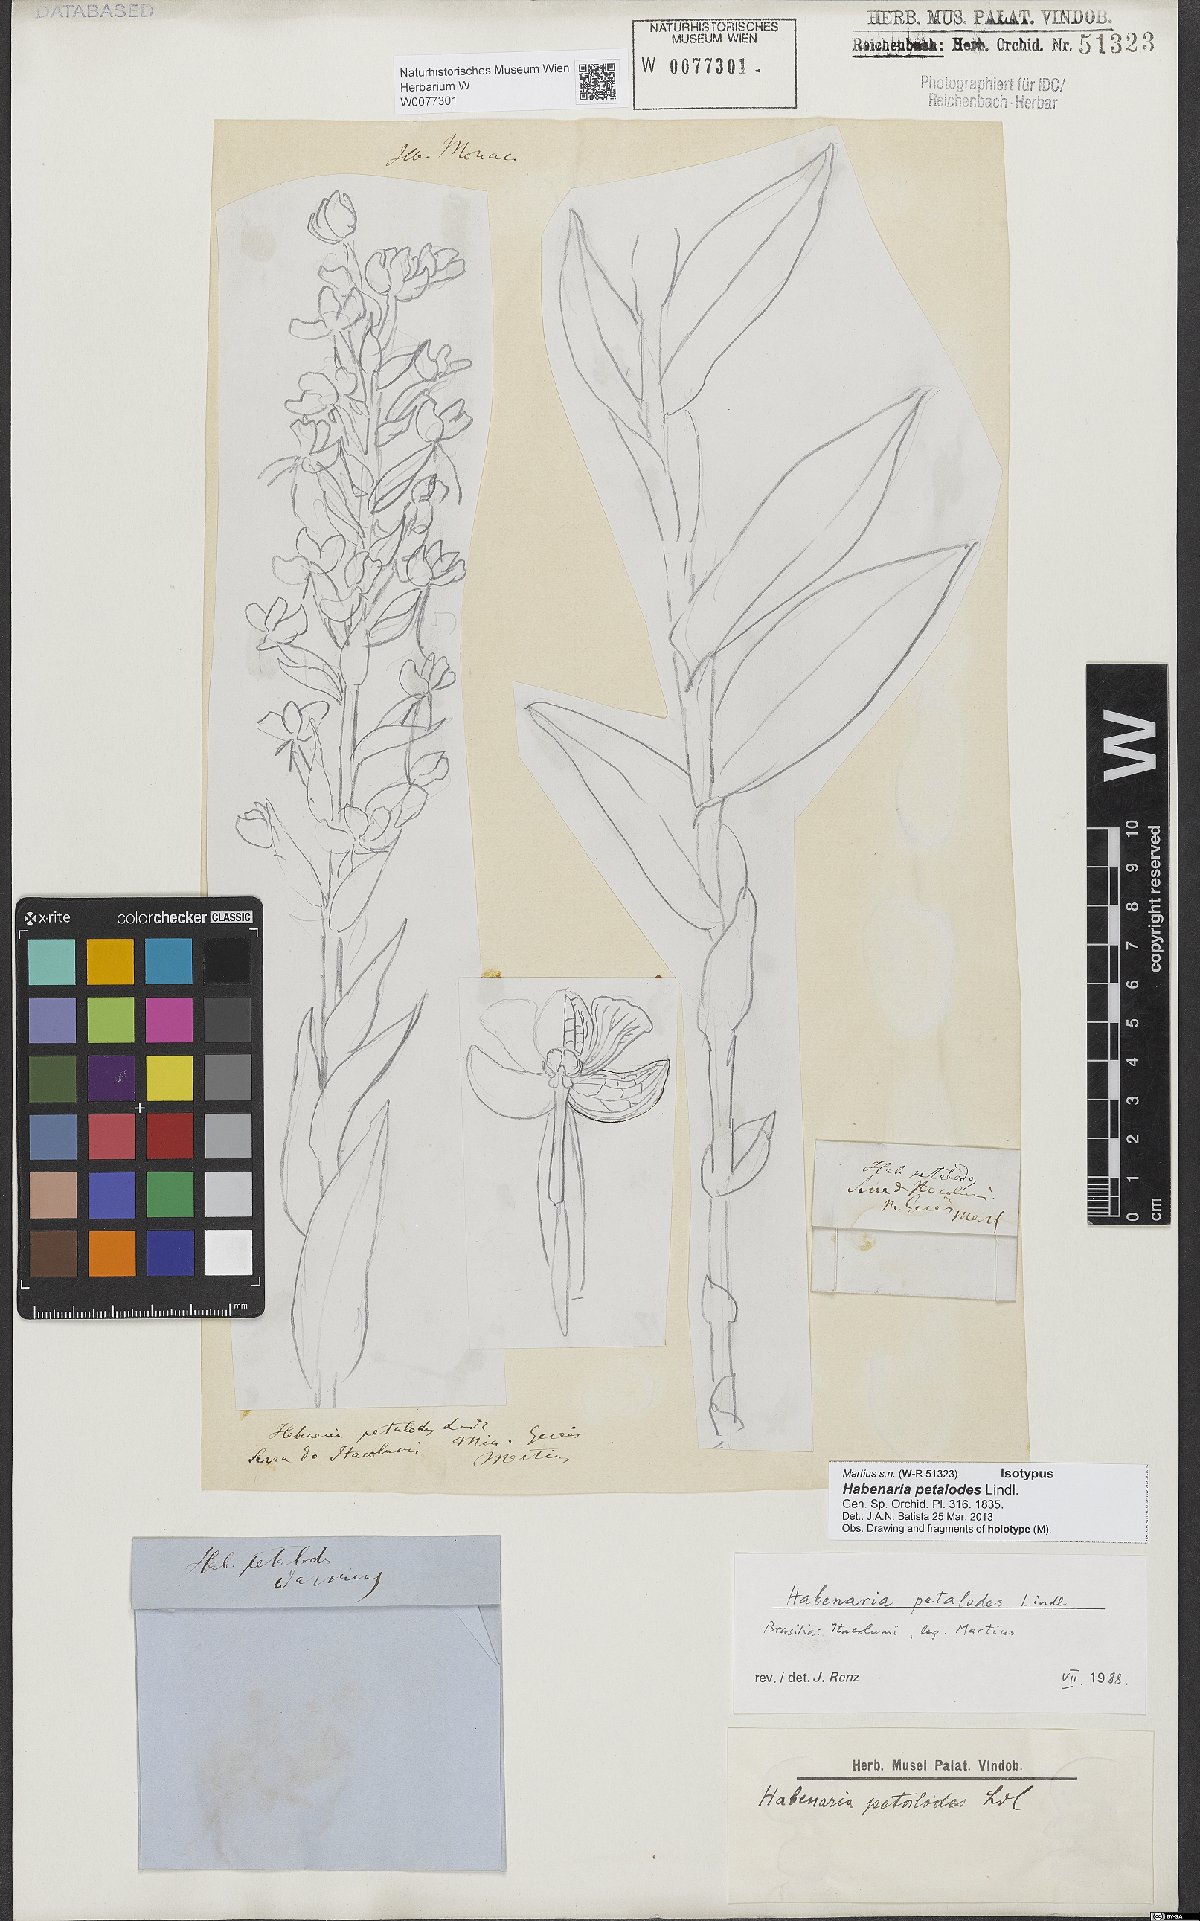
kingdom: Plantae
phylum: Tracheophyta
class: Liliopsida
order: Asparagales
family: Orchidaceae
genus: Habenaria
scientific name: Habenaria petalodes
